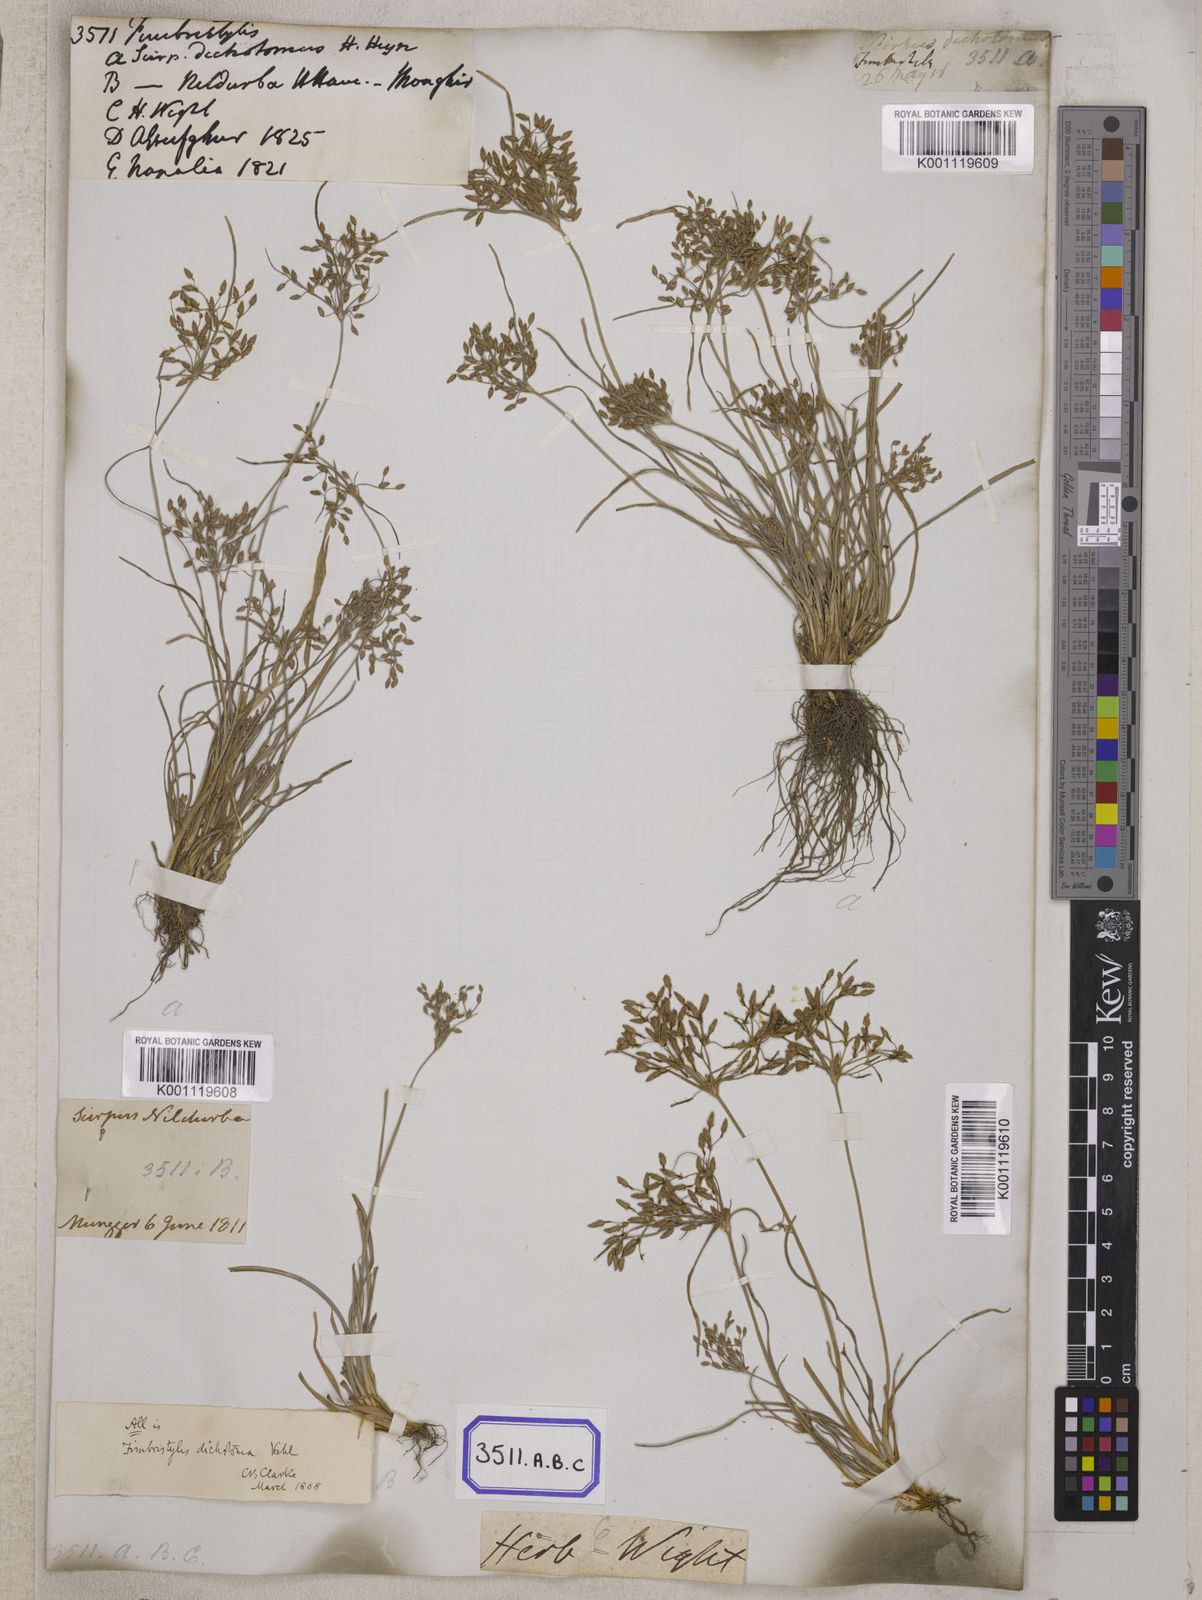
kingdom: Plantae
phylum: Tracheophyta
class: Liliopsida
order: Poales
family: Cyperaceae
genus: Fimbristylis
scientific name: Fimbristylis
